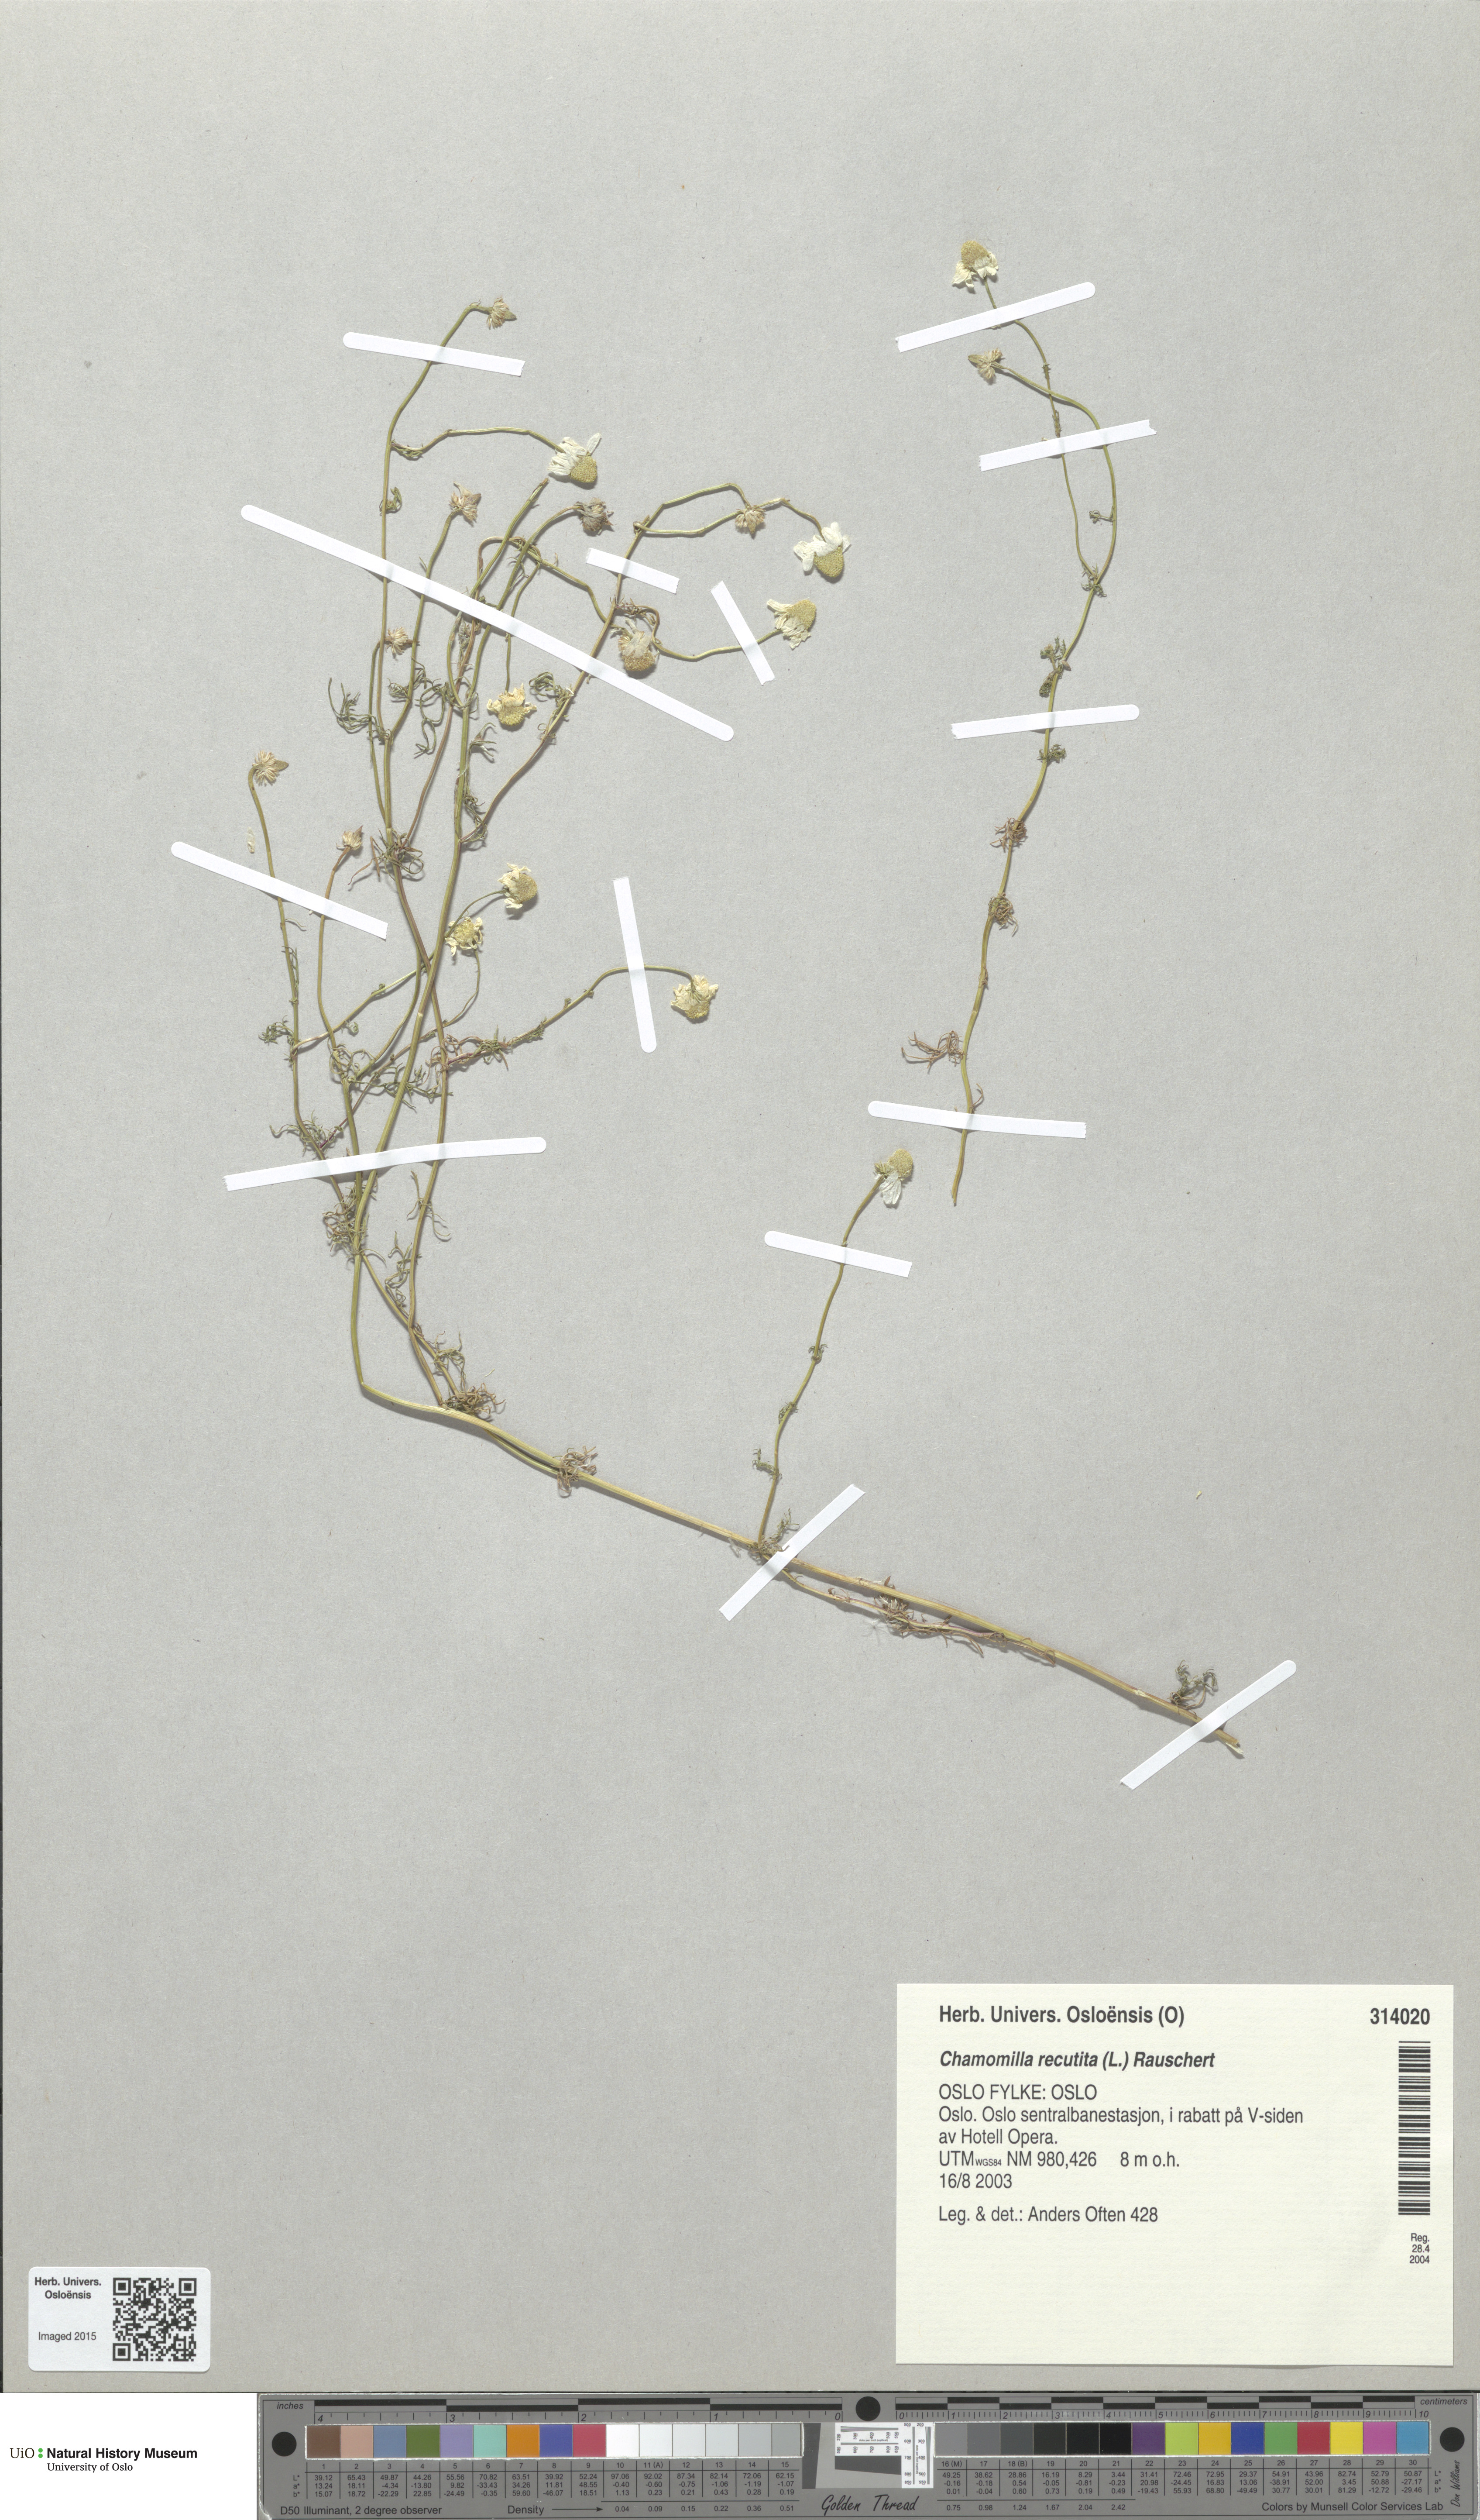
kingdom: Plantae
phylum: Tracheophyta
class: Magnoliopsida
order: Asterales
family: Asteraceae
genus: Matricaria
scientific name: Matricaria chamomilla
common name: Scented mayweed
